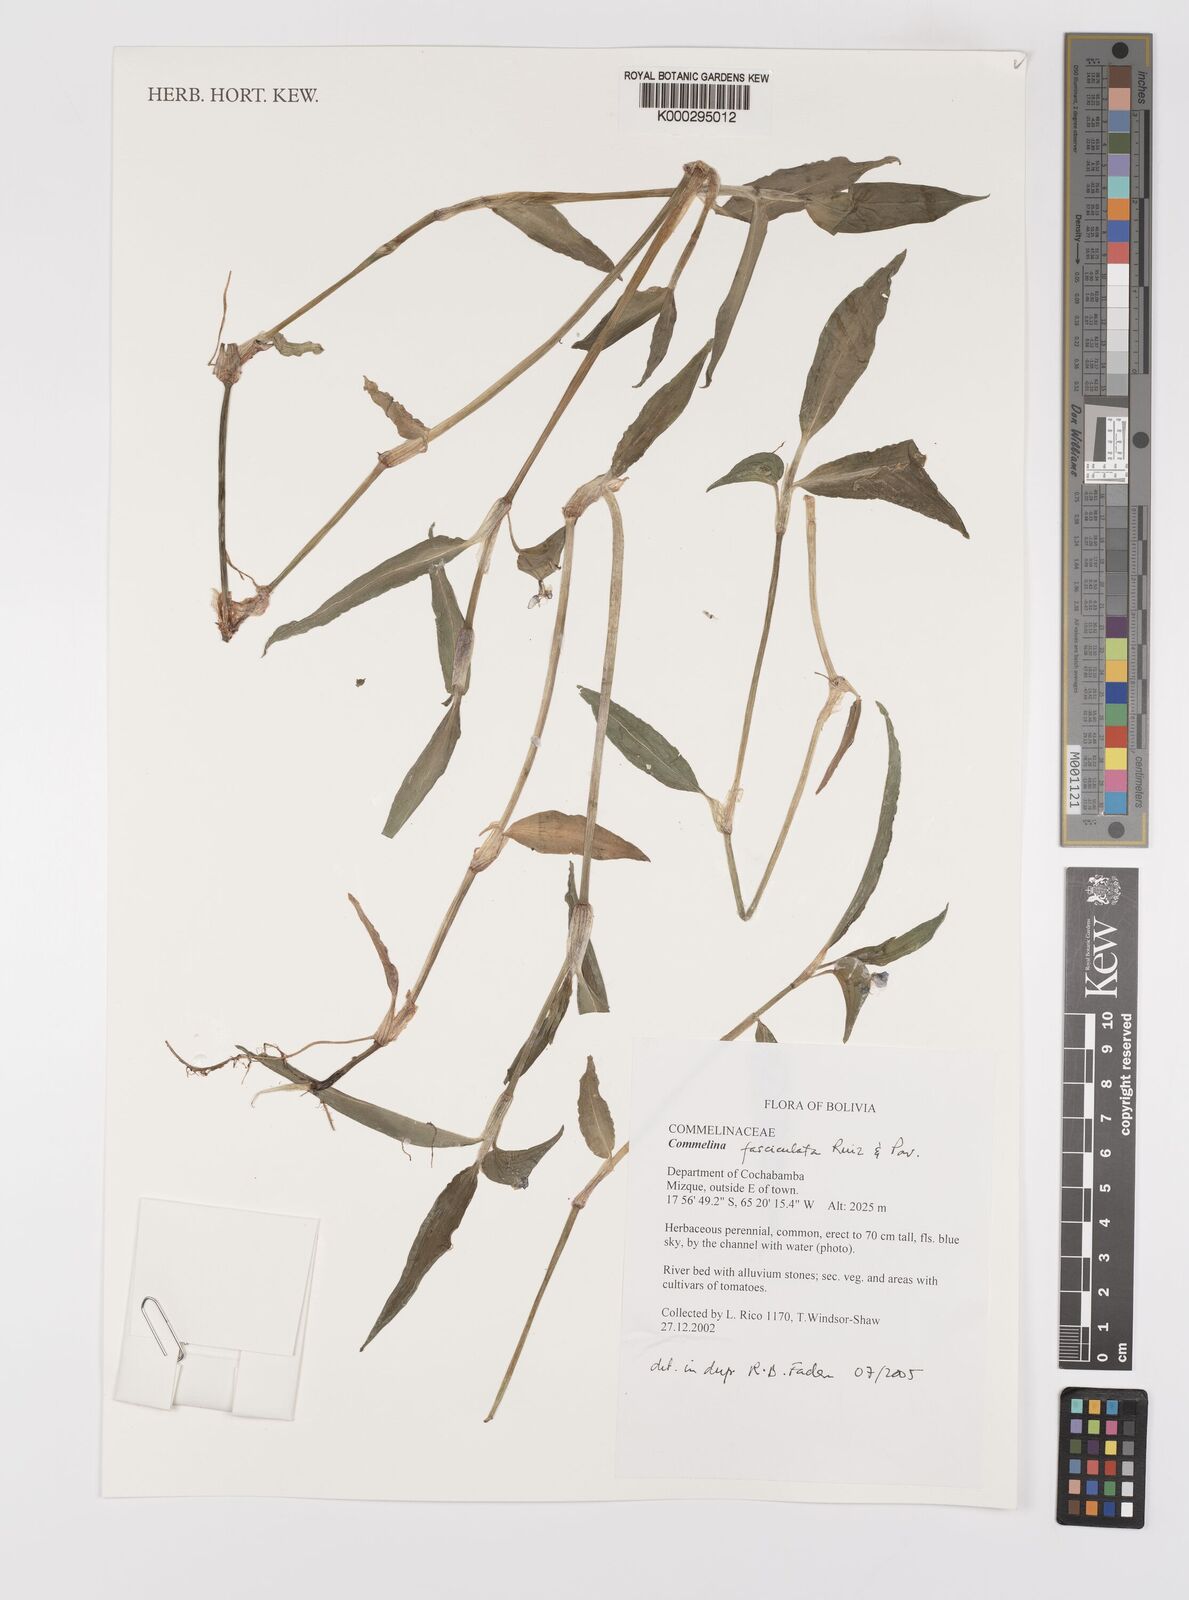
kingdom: Plantae
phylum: Tracheophyta
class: Liliopsida
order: Commelinales
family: Commelinaceae
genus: Commelina
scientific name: Commelina tuberosa
